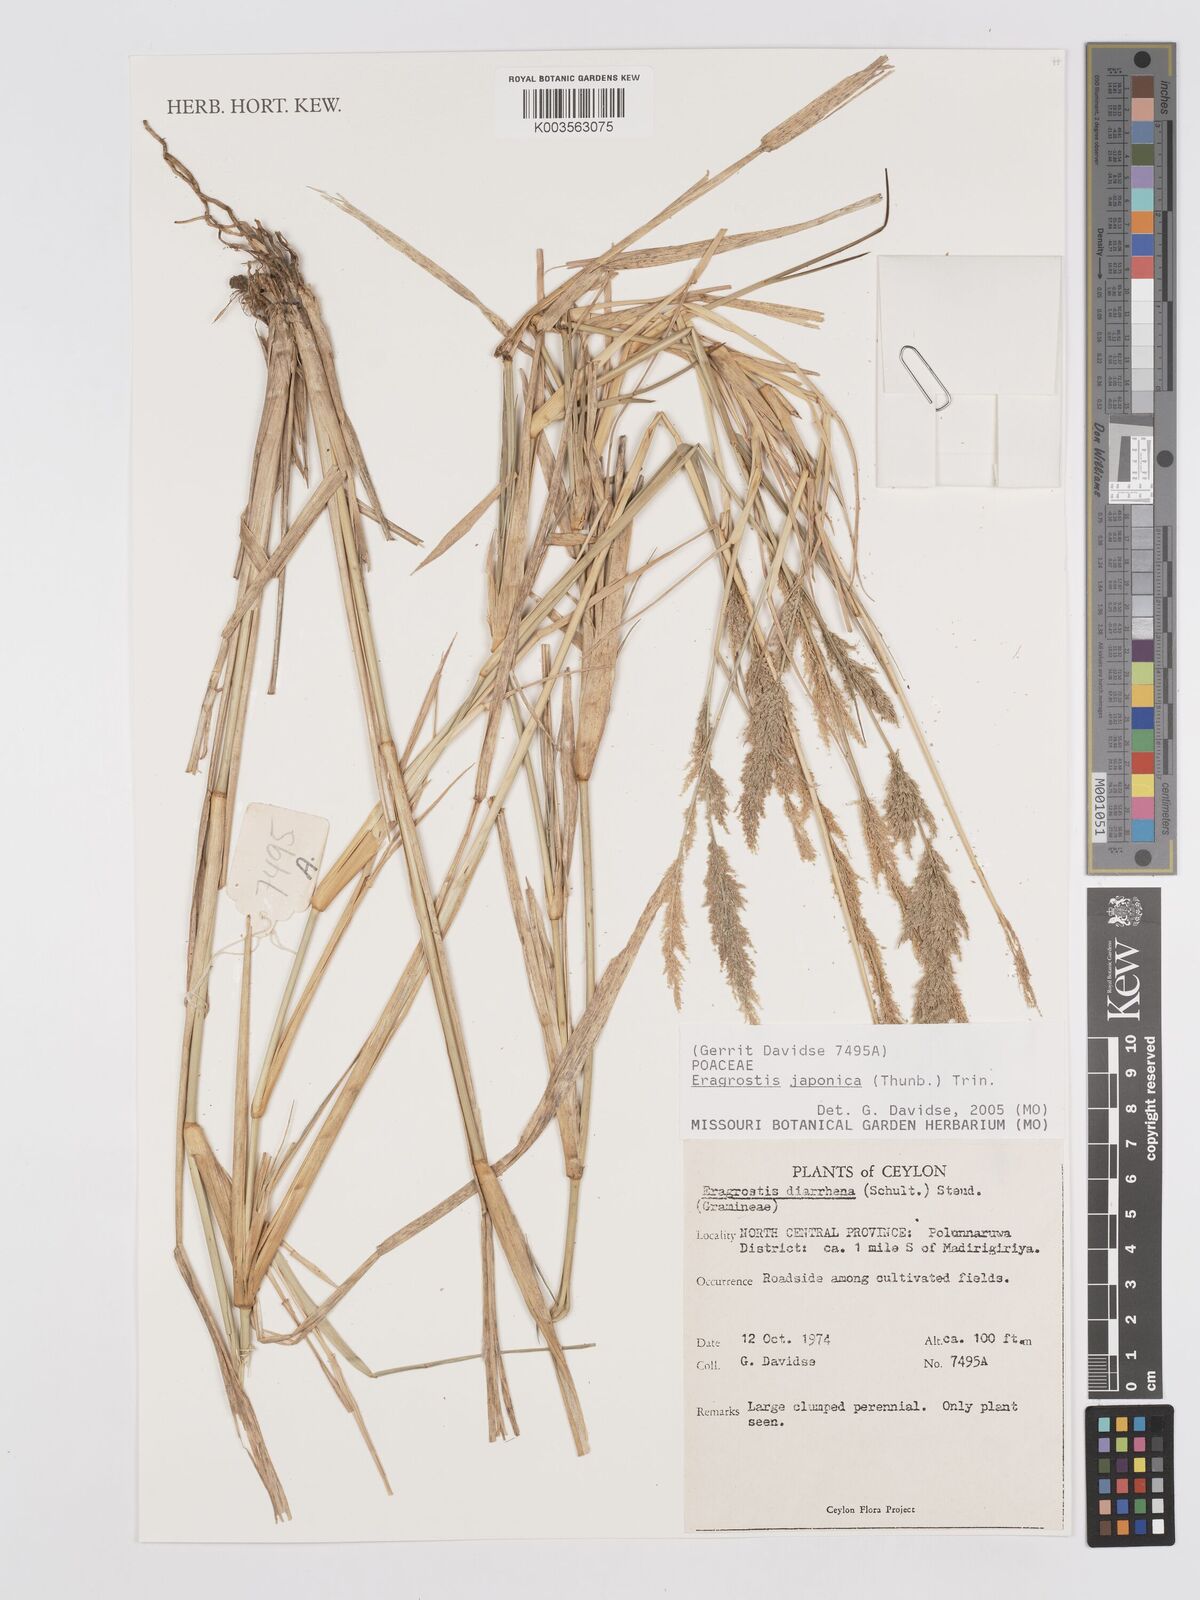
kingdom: Plantae
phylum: Tracheophyta
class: Liliopsida
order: Poales
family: Poaceae
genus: Eragrostis
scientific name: Eragrostis japonica
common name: Pond lovegrass
